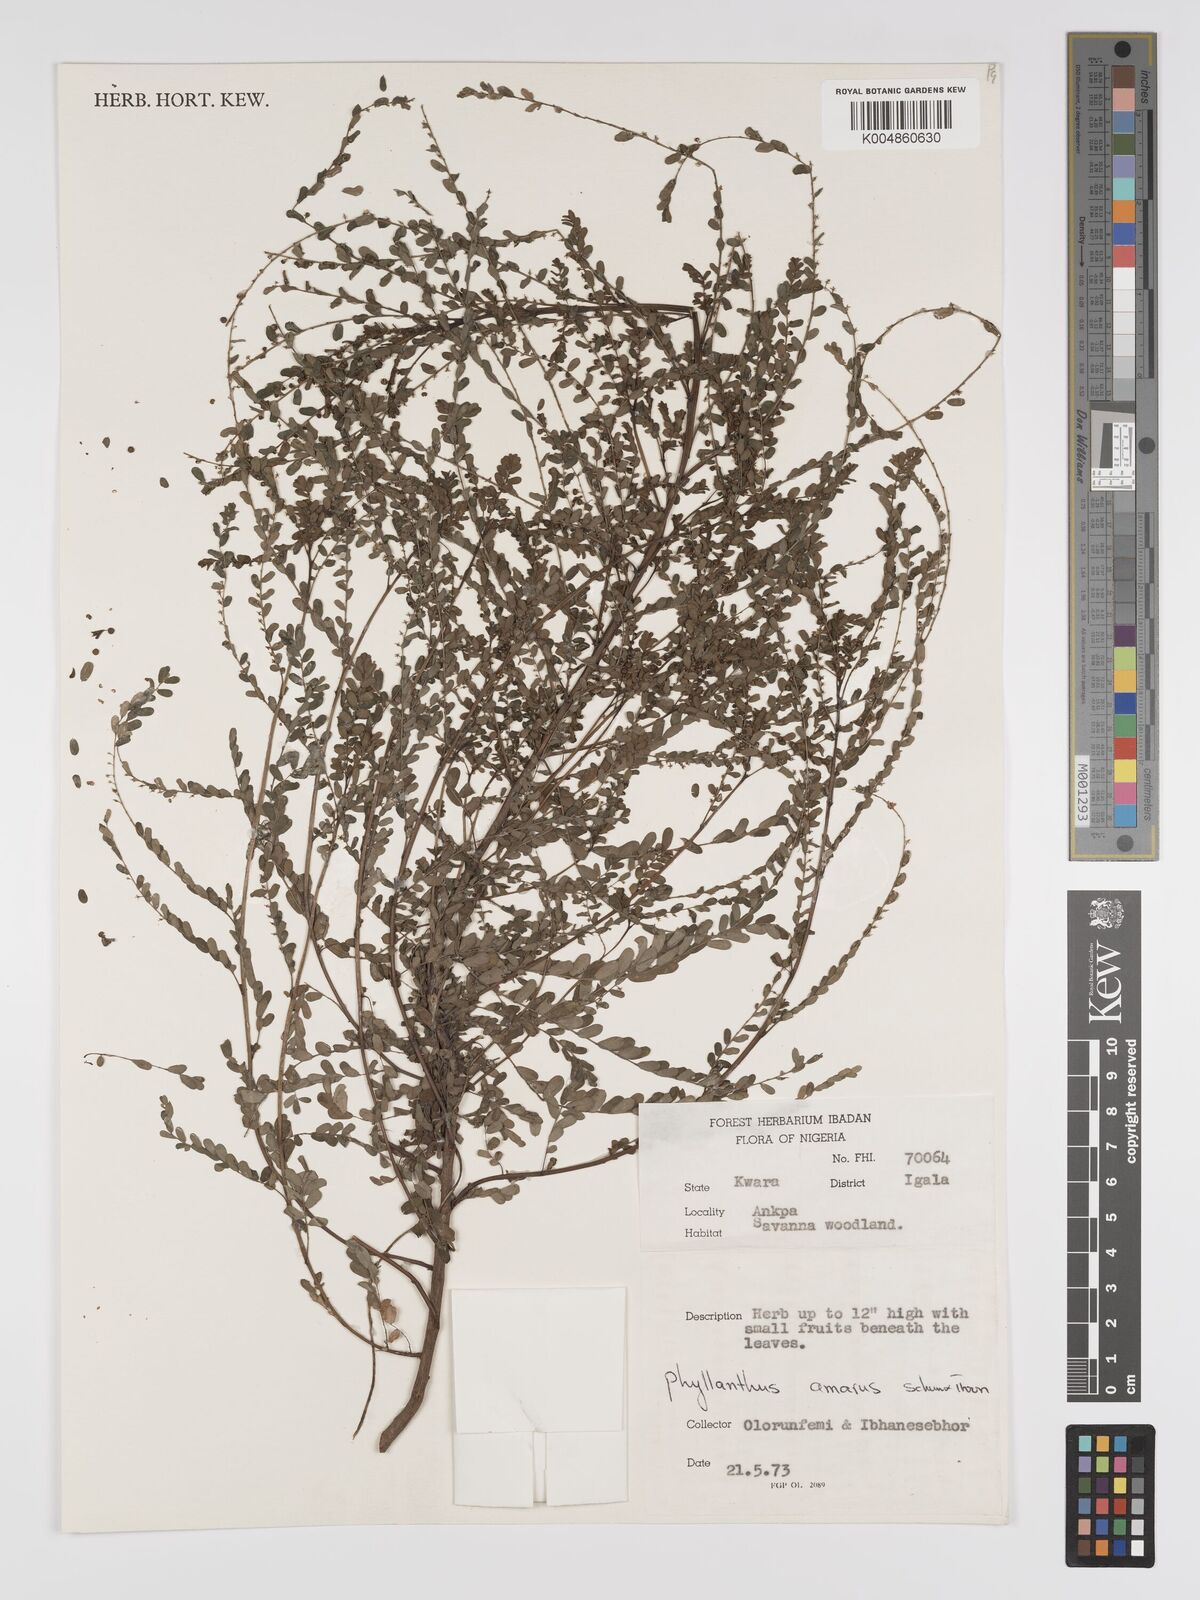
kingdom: Plantae
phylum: Tracheophyta
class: Magnoliopsida
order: Malpighiales
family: Phyllanthaceae
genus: Phyllanthus
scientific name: Phyllanthus amarus
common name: Carry me seed
